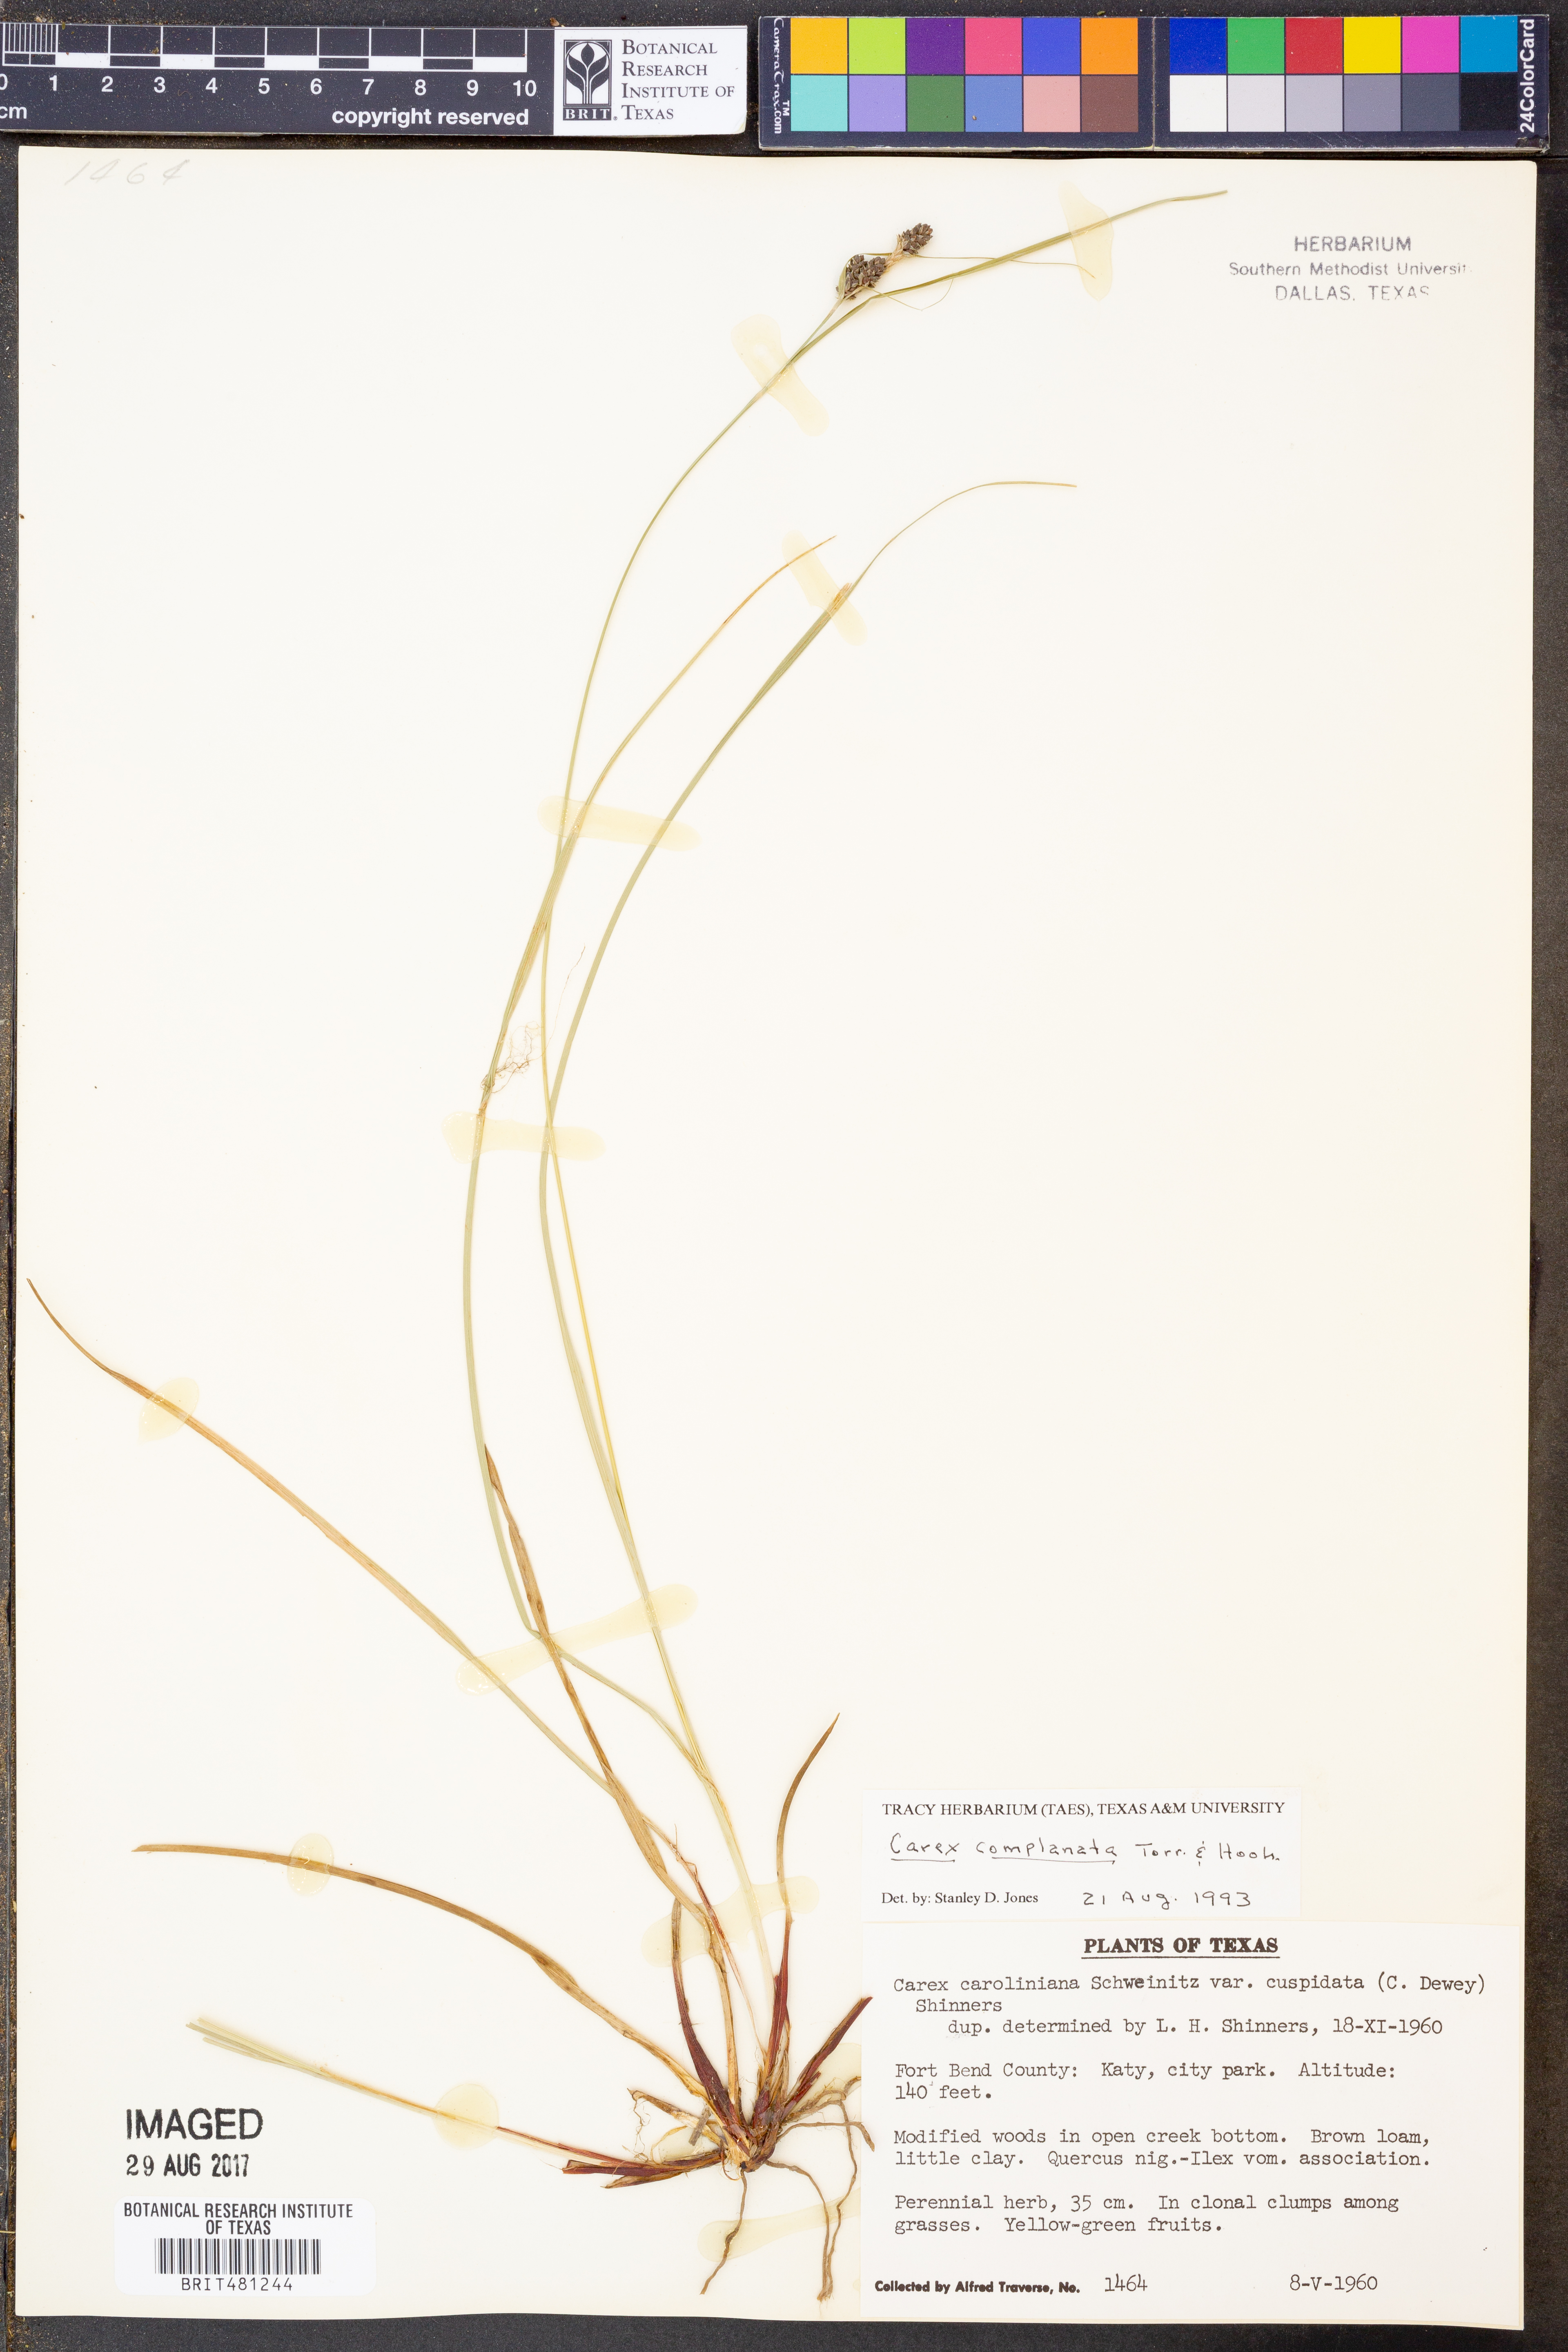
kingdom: Plantae
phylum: Tracheophyta
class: Liliopsida
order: Poales
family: Cyperaceae
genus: Carex
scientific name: Carex complanata
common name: Hirsute sedge
